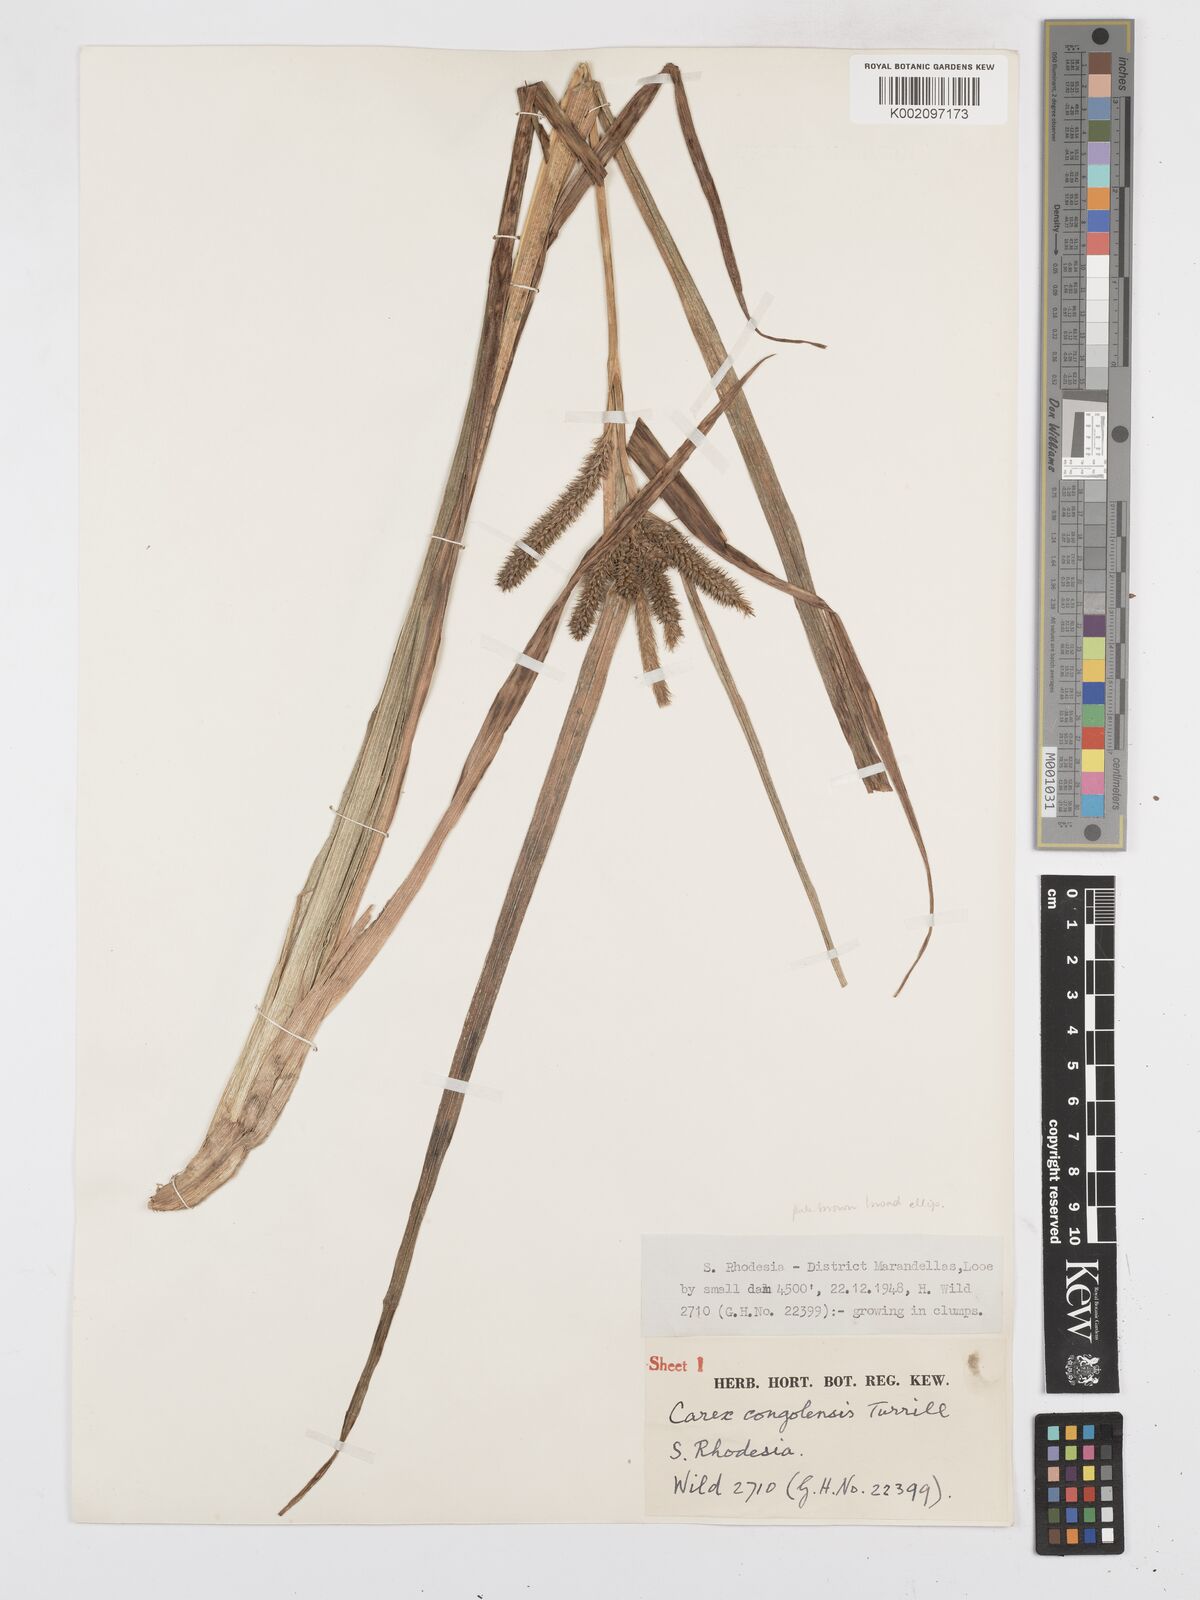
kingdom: Plantae
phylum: Tracheophyta
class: Liliopsida
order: Poales
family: Cyperaceae
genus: Carex
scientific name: Carex congolensis
